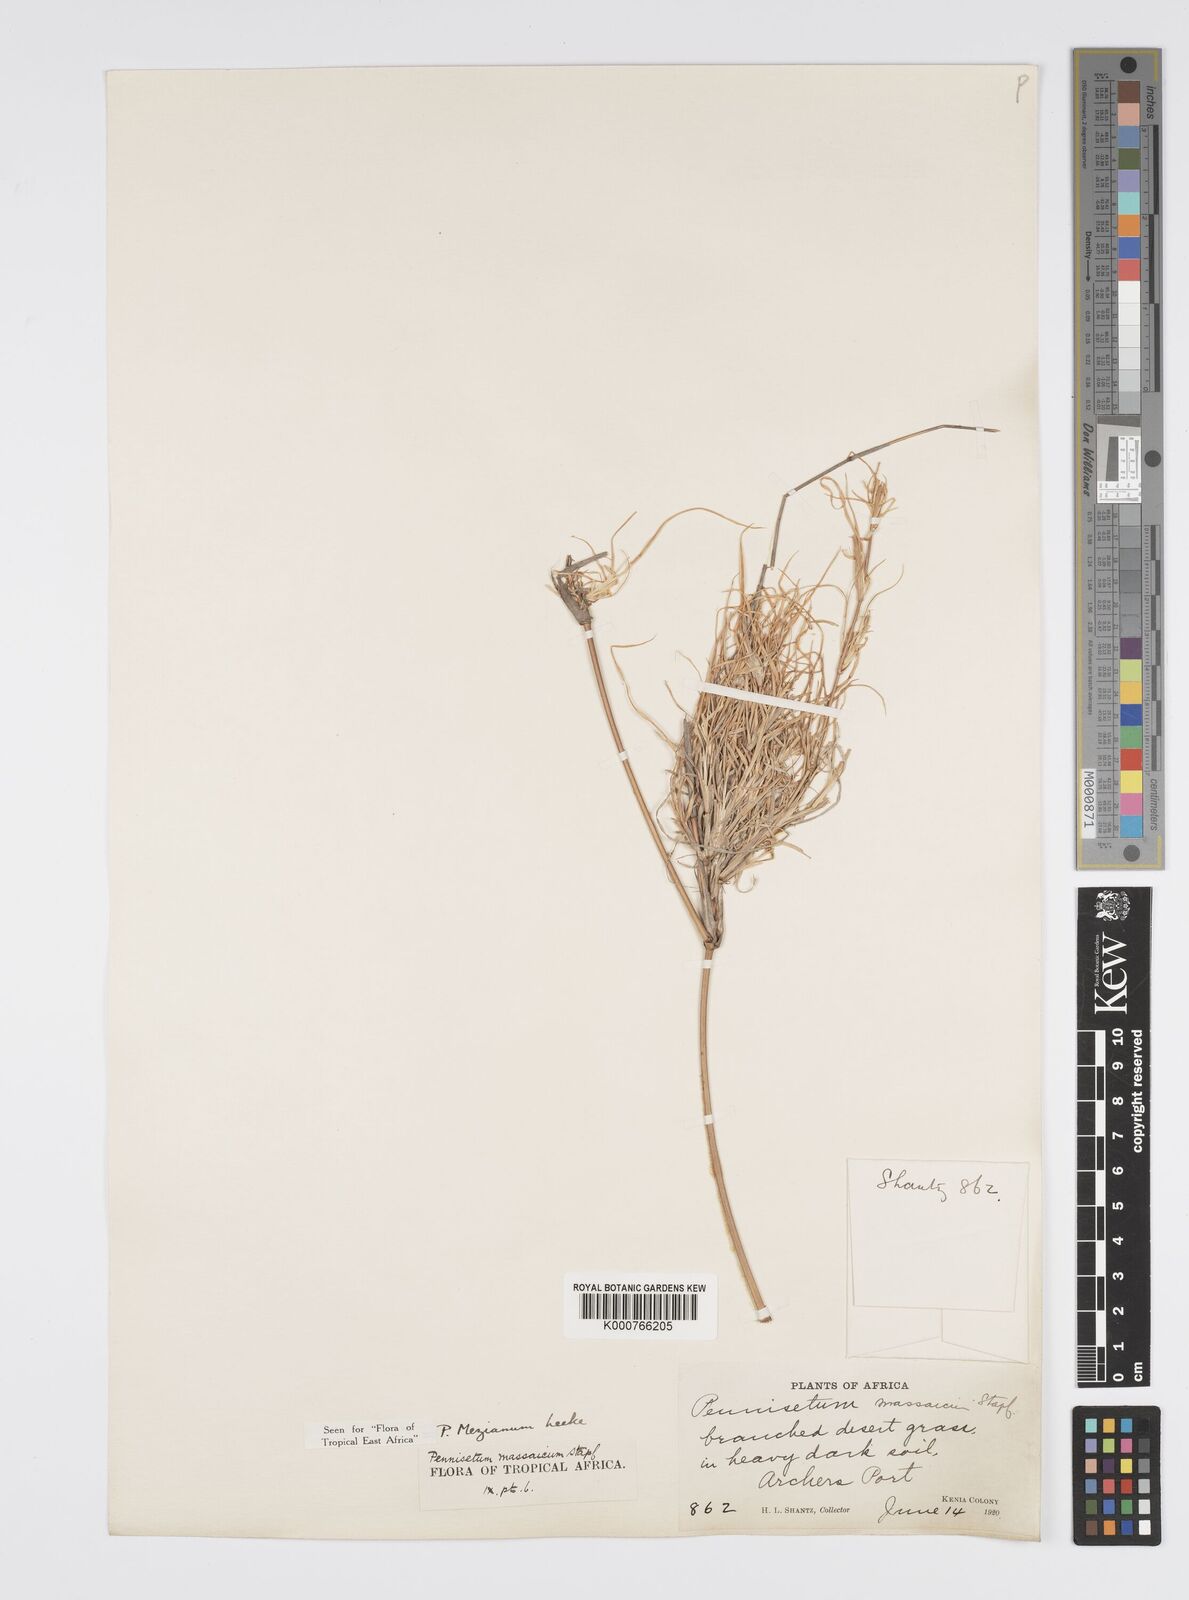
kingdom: Plantae
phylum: Tracheophyta
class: Liliopsida
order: Poales
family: Poaceae
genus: Cenchrus
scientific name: Cenchrus mezianus
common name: Bamboo grass
